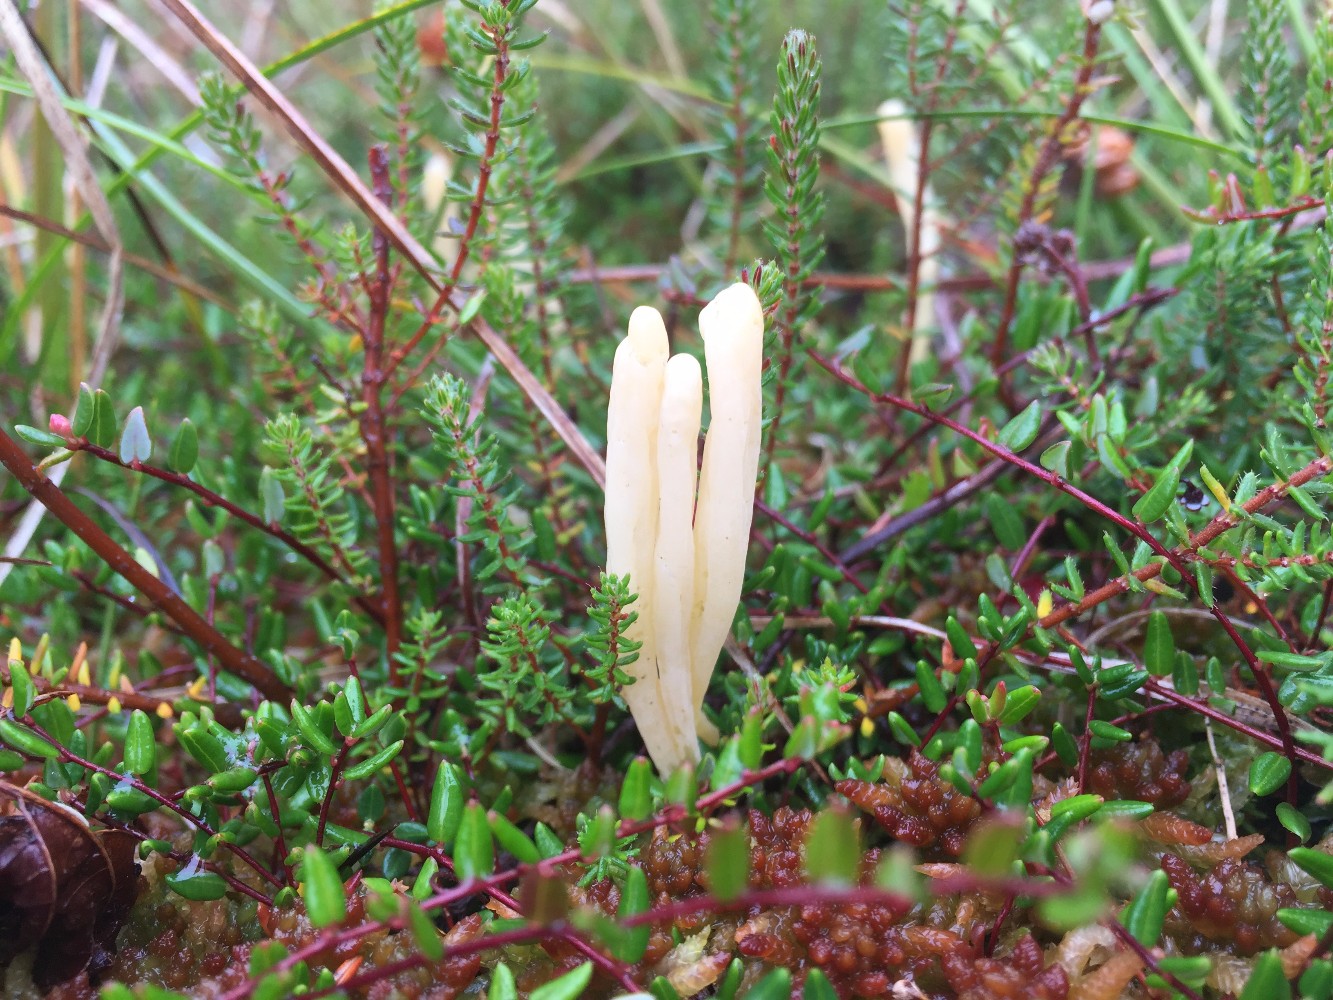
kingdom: Fungi
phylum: Basidiomycota
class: Agaricomycetes
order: Agaricales
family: Clavariaceae
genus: Clavaria
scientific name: Clavaria sphagnicola
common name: tørvemos-køllesvamp
